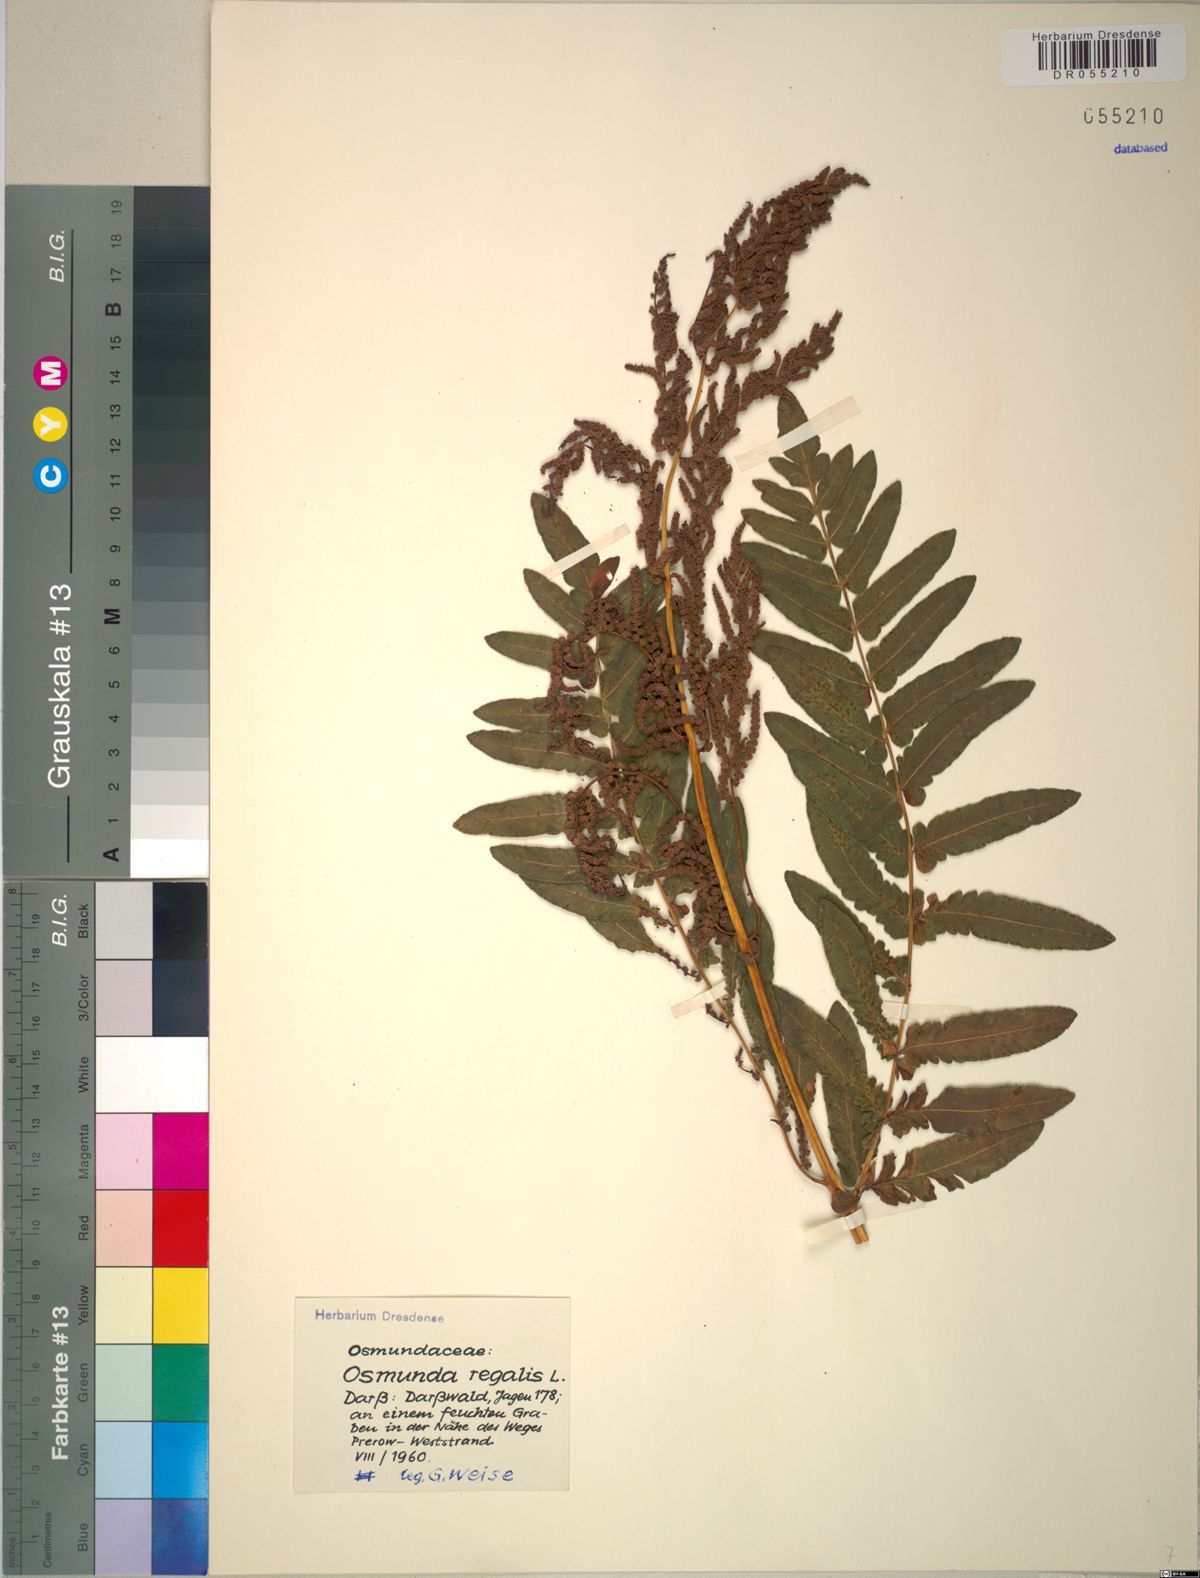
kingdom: Plantae
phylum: Tracheophyta
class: Polypodiopsida
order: Osmundales
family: Osmundaceae
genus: Osmunda
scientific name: Osmunda regalis
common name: Royal fern
